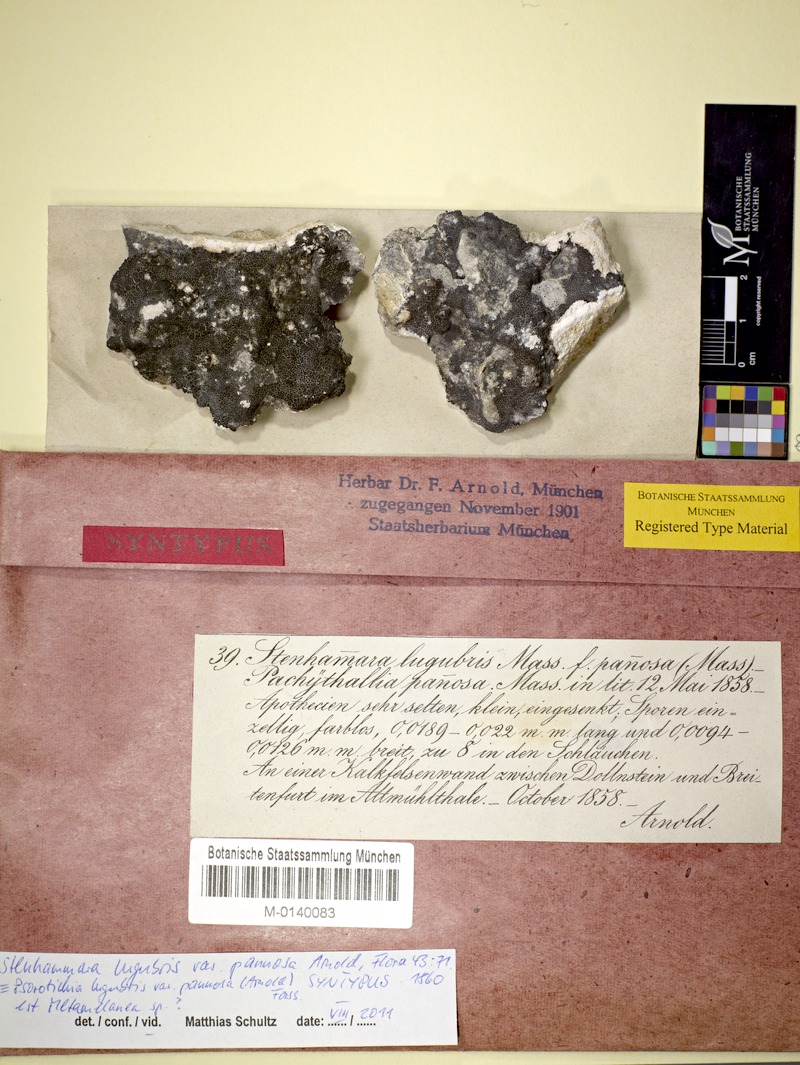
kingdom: Fungi
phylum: Ascomycota
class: Lecanoromycetes
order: Schaereriales
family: Schaereriaceae
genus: Ropalospora
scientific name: Ropalospora lugubris
